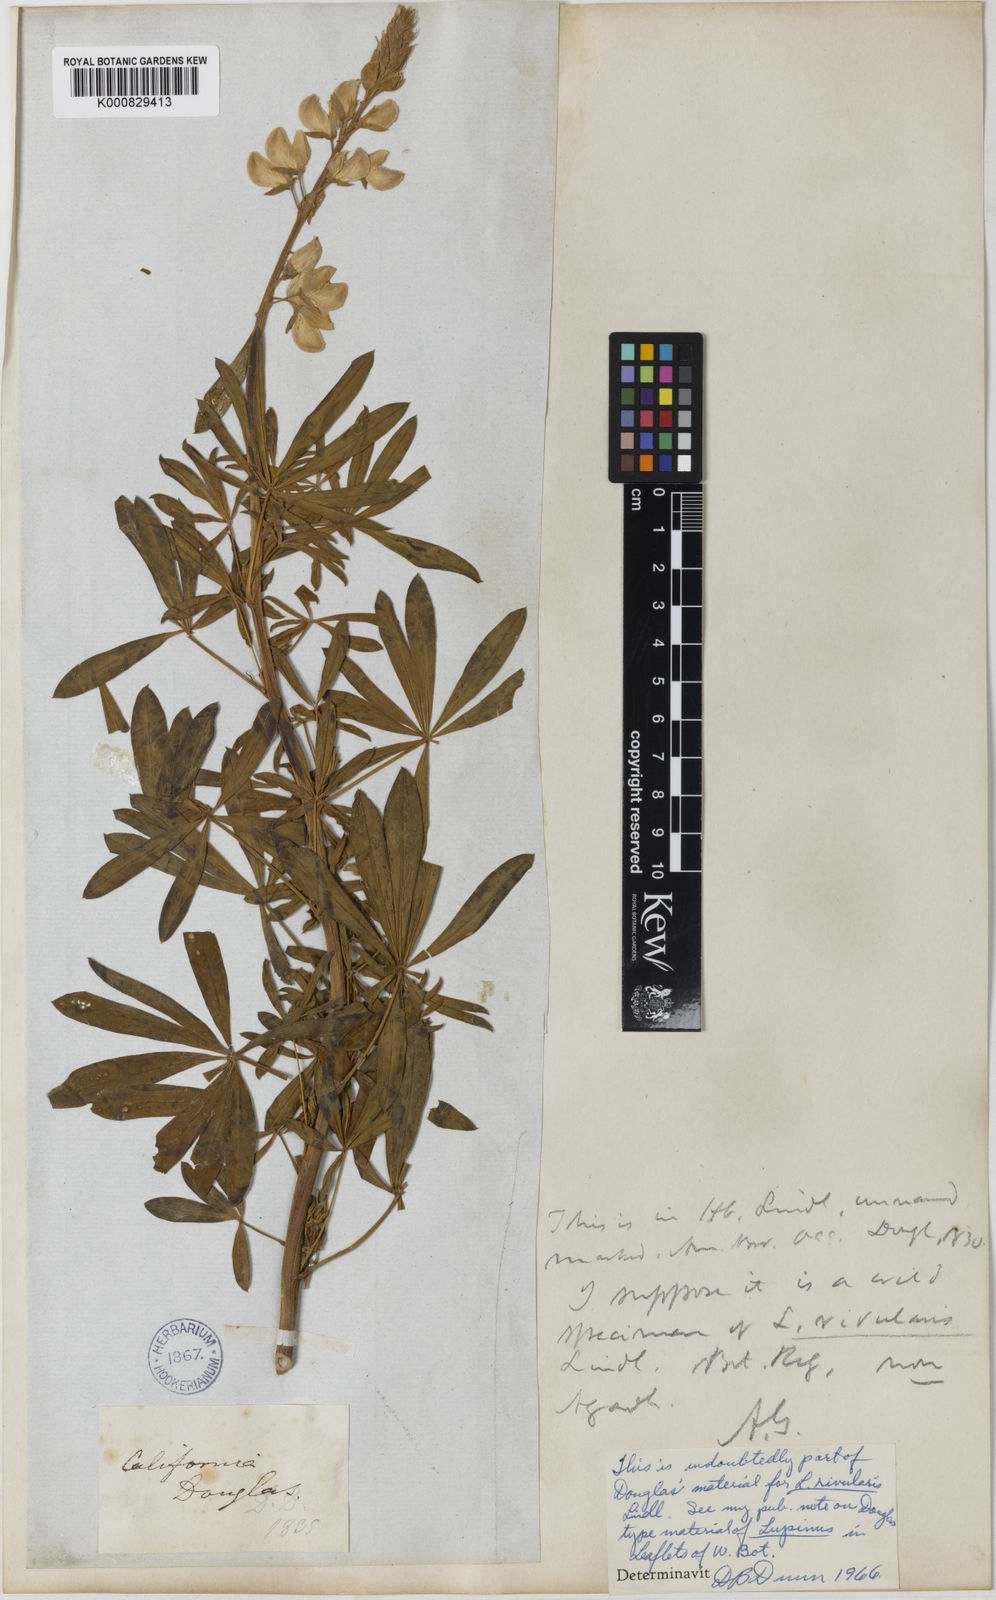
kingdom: Plantae
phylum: Tracheophyta
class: Magnoliopsida
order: Fabales
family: Fabaceae
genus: Lupinus
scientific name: Lupinus rivularis
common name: Riverbank lupine
